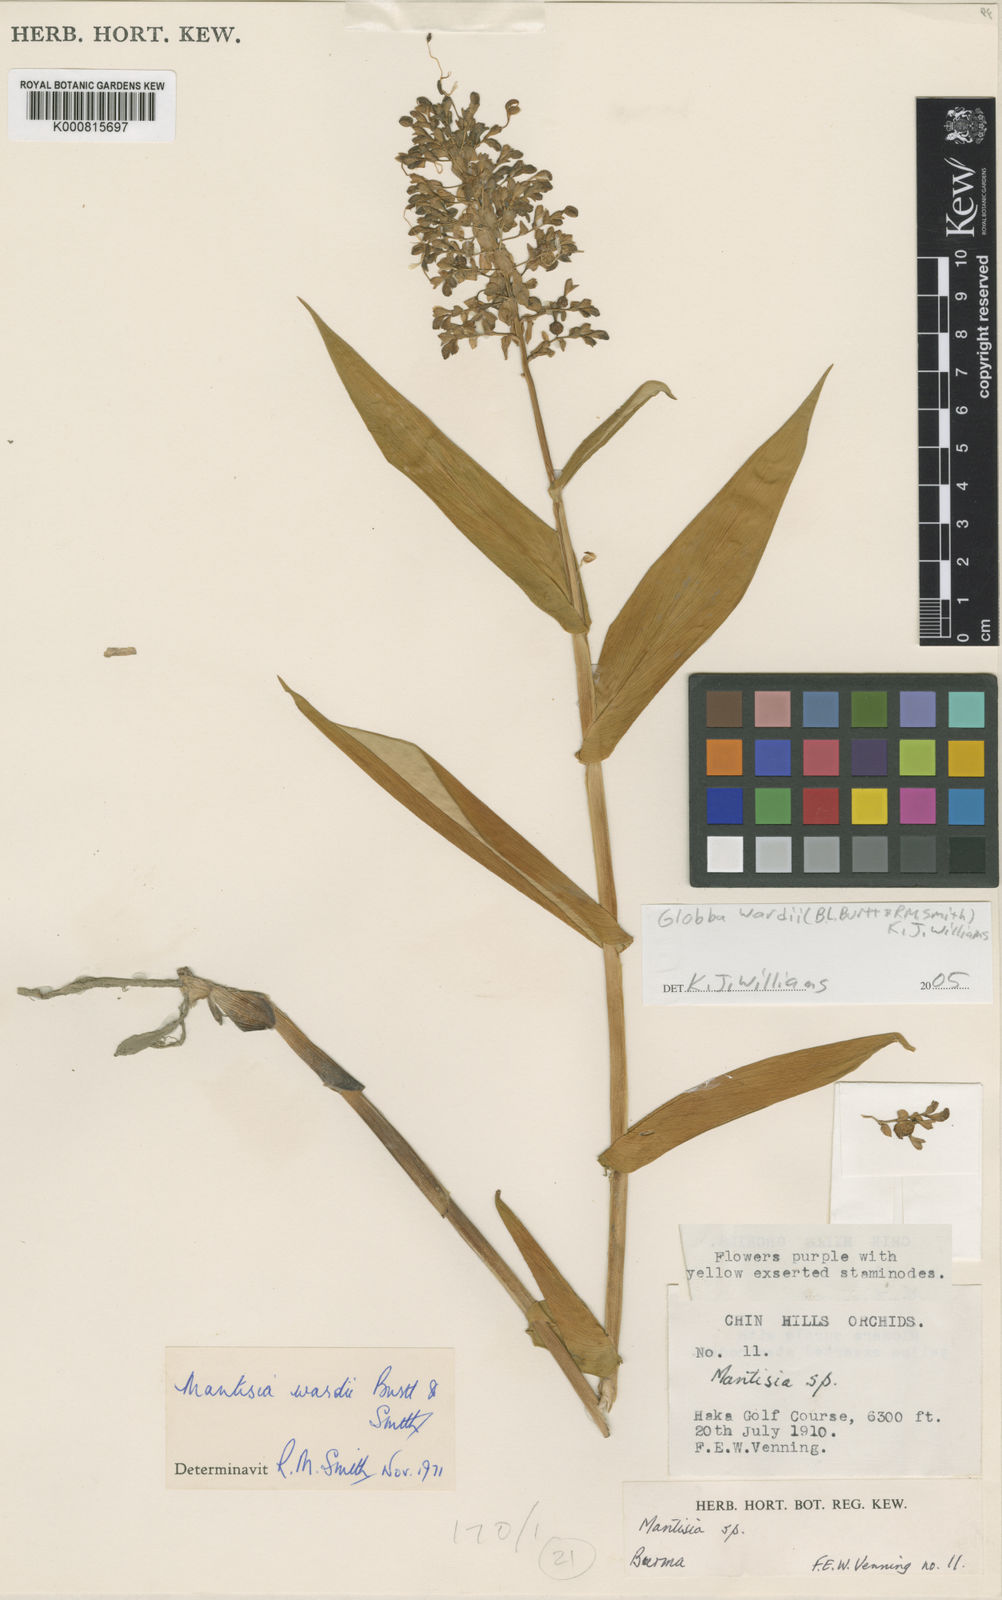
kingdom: Plantae
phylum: Tracheophyta
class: Liliopsida
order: Zingiberales
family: Zingiberaceae
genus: Globba
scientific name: Globba wardii
